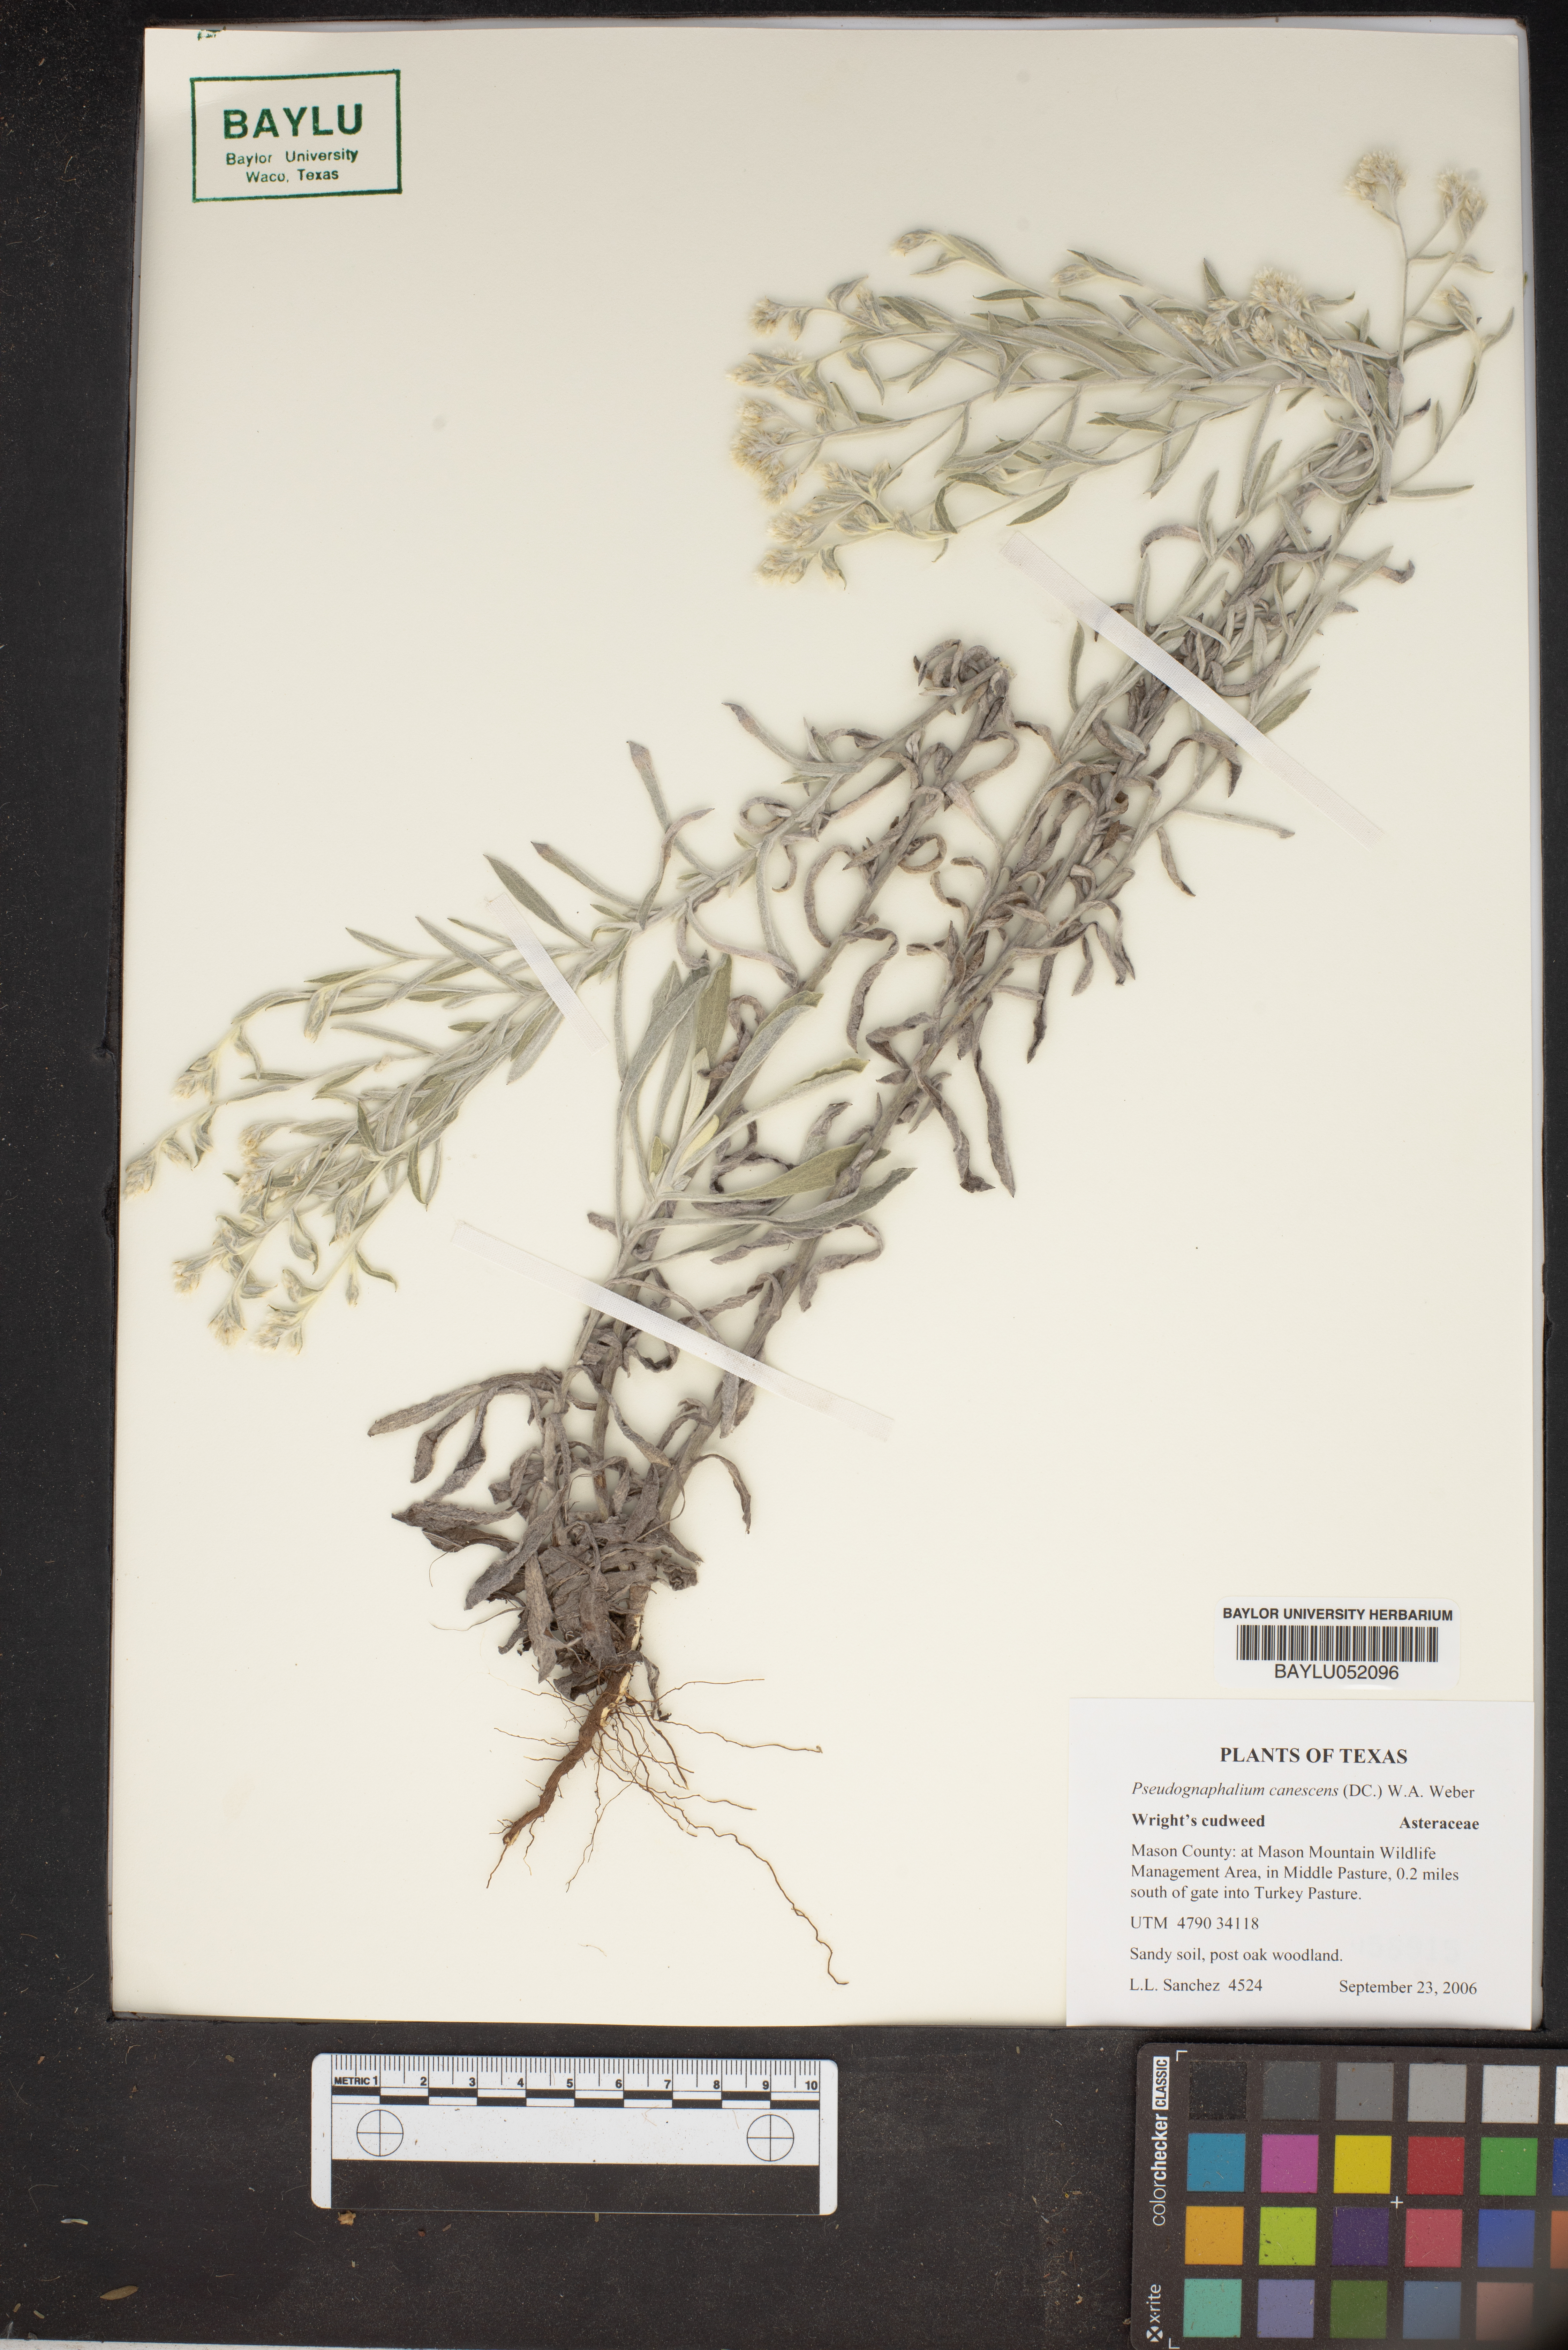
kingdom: Plantae
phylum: Tracheophyta
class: Magnoliopsida
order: Asterales
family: Asteraceae
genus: Pseudognaphalium
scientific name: Pseudognaphalium canescens
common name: Wright's rabbit-tobacco
